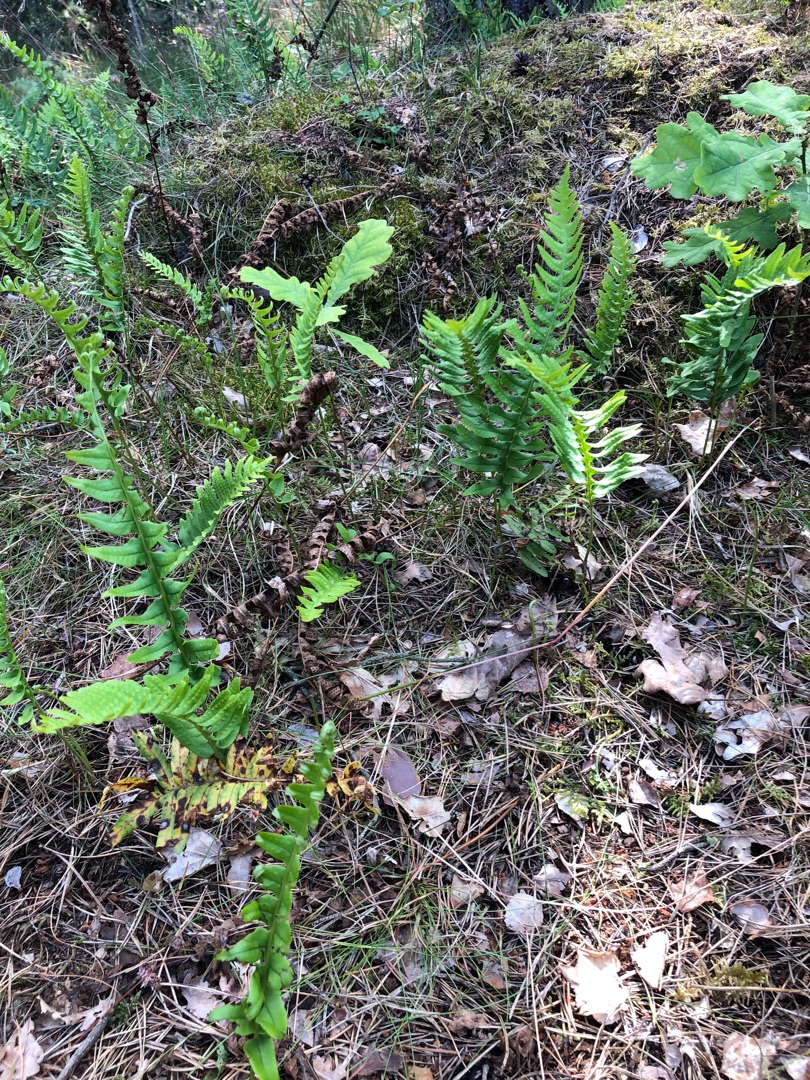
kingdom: Plantae
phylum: Tracheophyta
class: Polypodiopsida
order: Polypodiales
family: Polypodiaceae
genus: Polypodium
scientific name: Polypodium vulgare
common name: Almindelig engelsød
